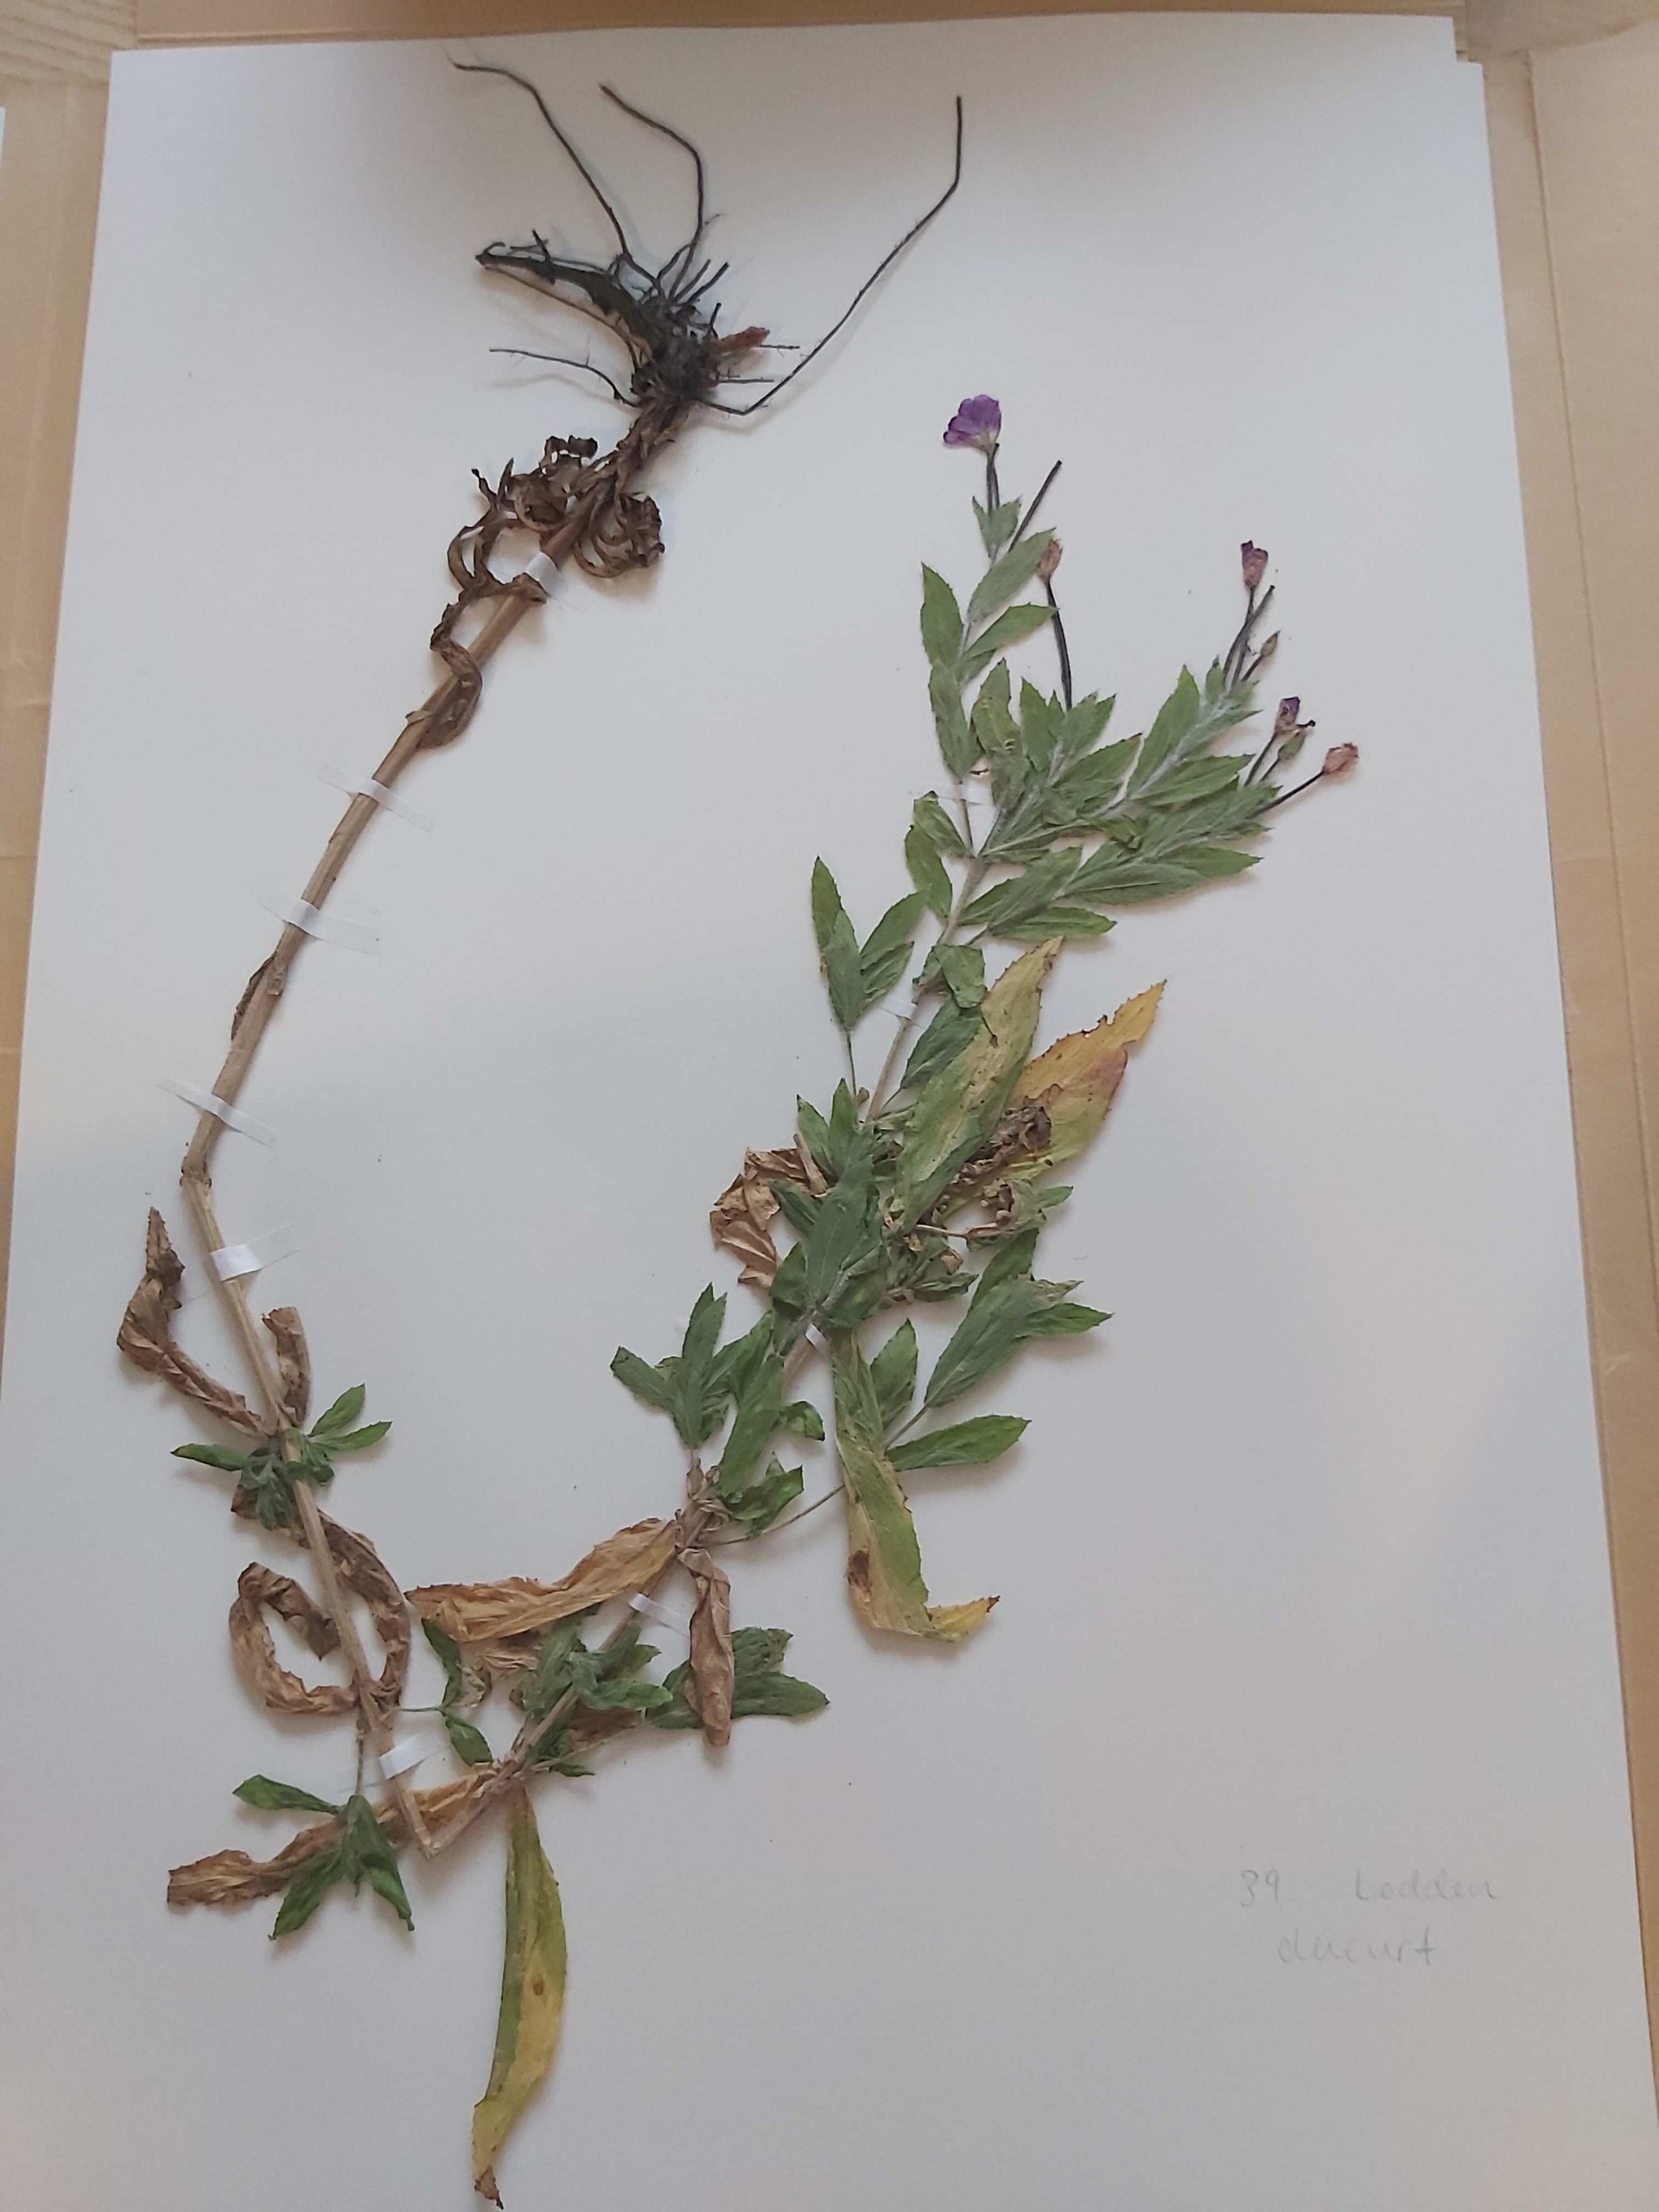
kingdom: Plantae
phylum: Tracheophyta
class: Magnoliopsida
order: Myrtales
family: Onagraceae
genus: Epilobium
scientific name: Epilobium hirsutum
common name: Lådden dueurt
